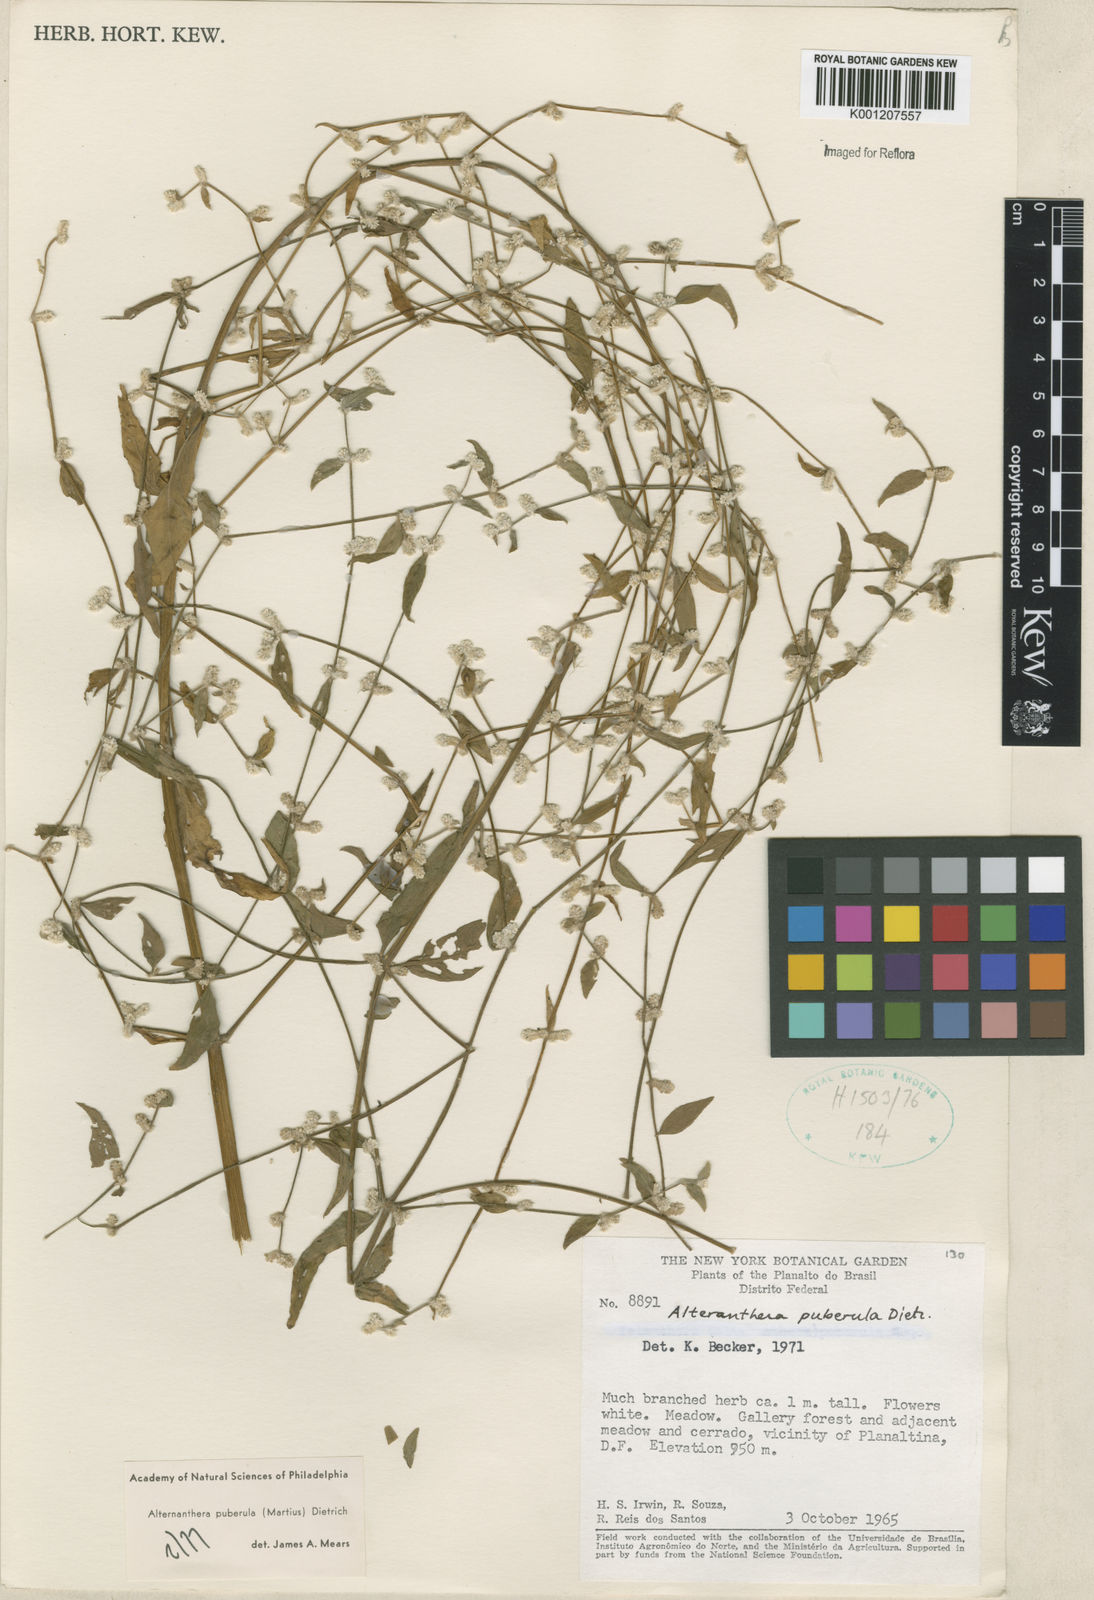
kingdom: Plantae
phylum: Tracheophyta
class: Magnoliopsida
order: Caryophyllales
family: Amaranthaceae
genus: Alternanthera
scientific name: Alternanthera puberula
